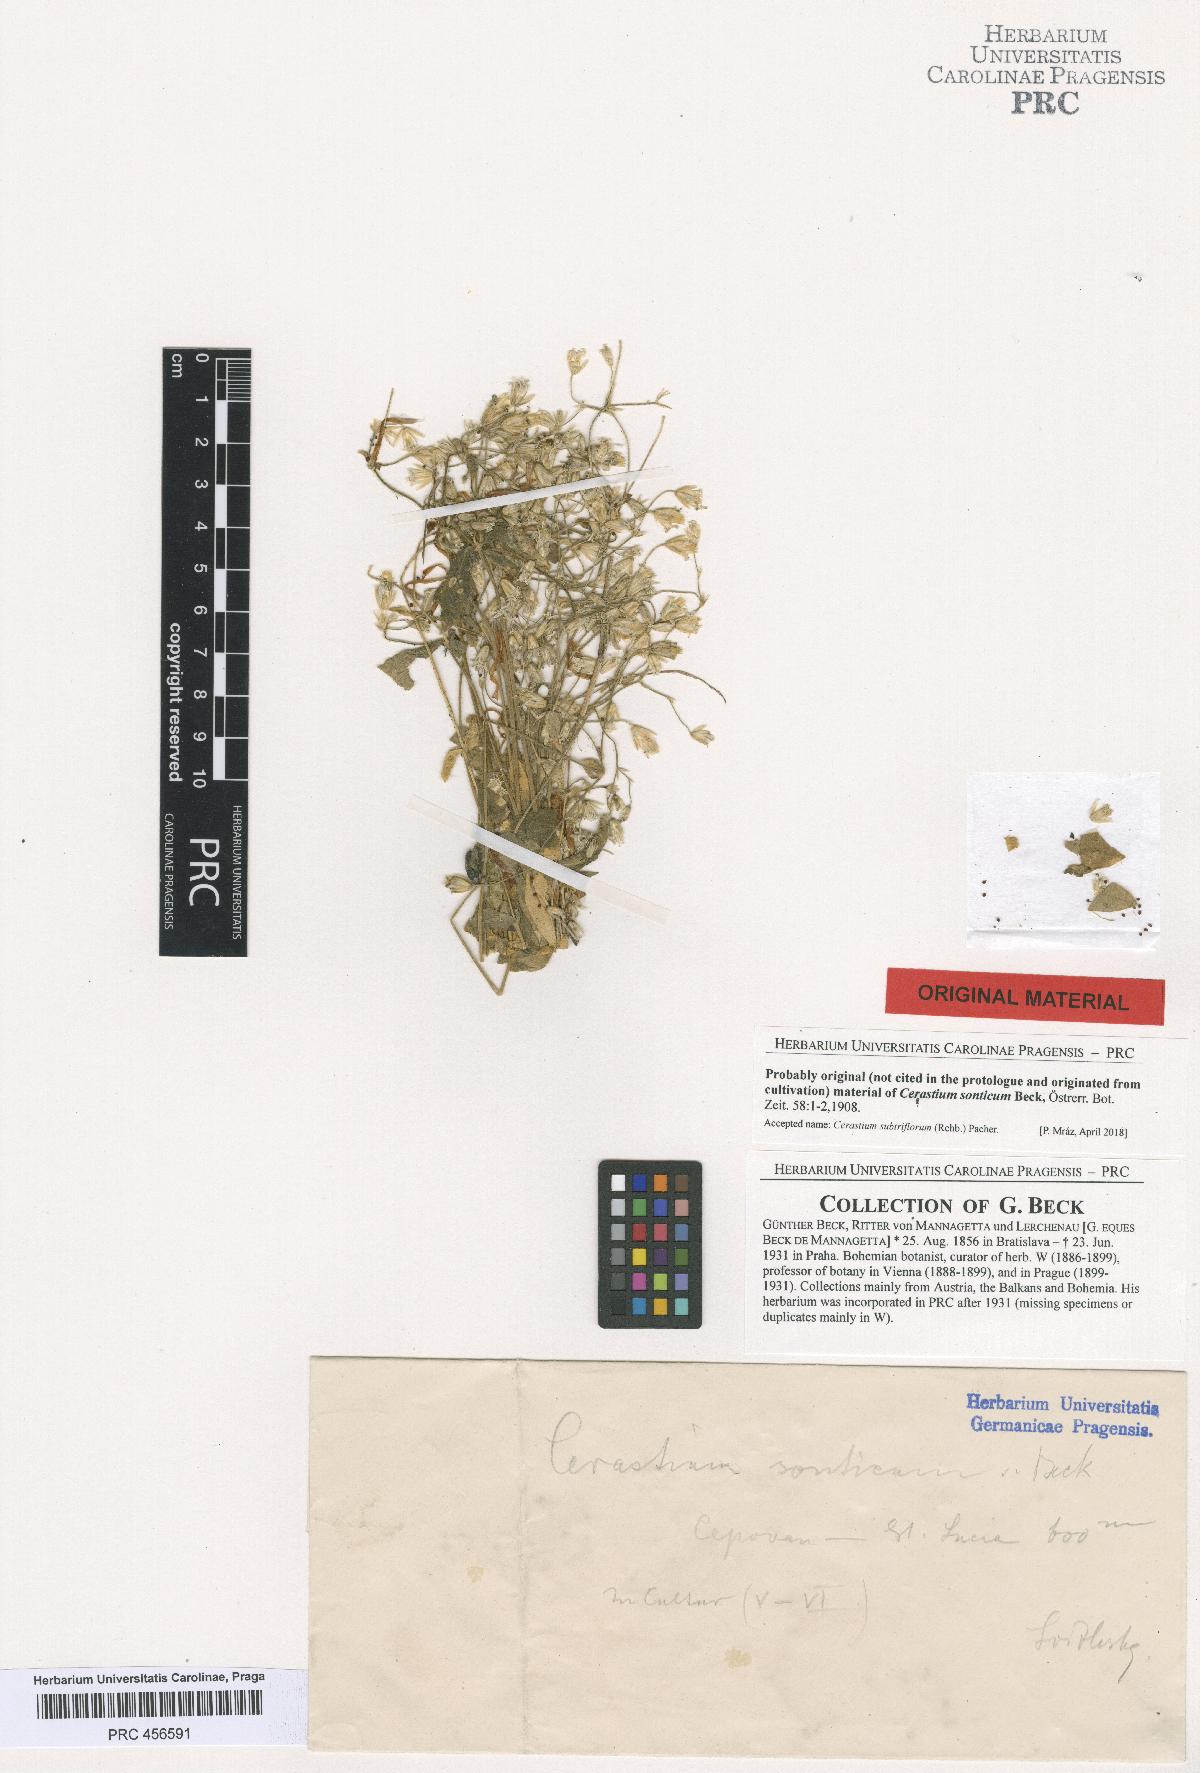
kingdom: Plantae
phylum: Tracheophyta
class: Magnoliopsida
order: Caryophyllales
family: Caryophyllaceae
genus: Cerastium
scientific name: Cerastium subtriflorum
